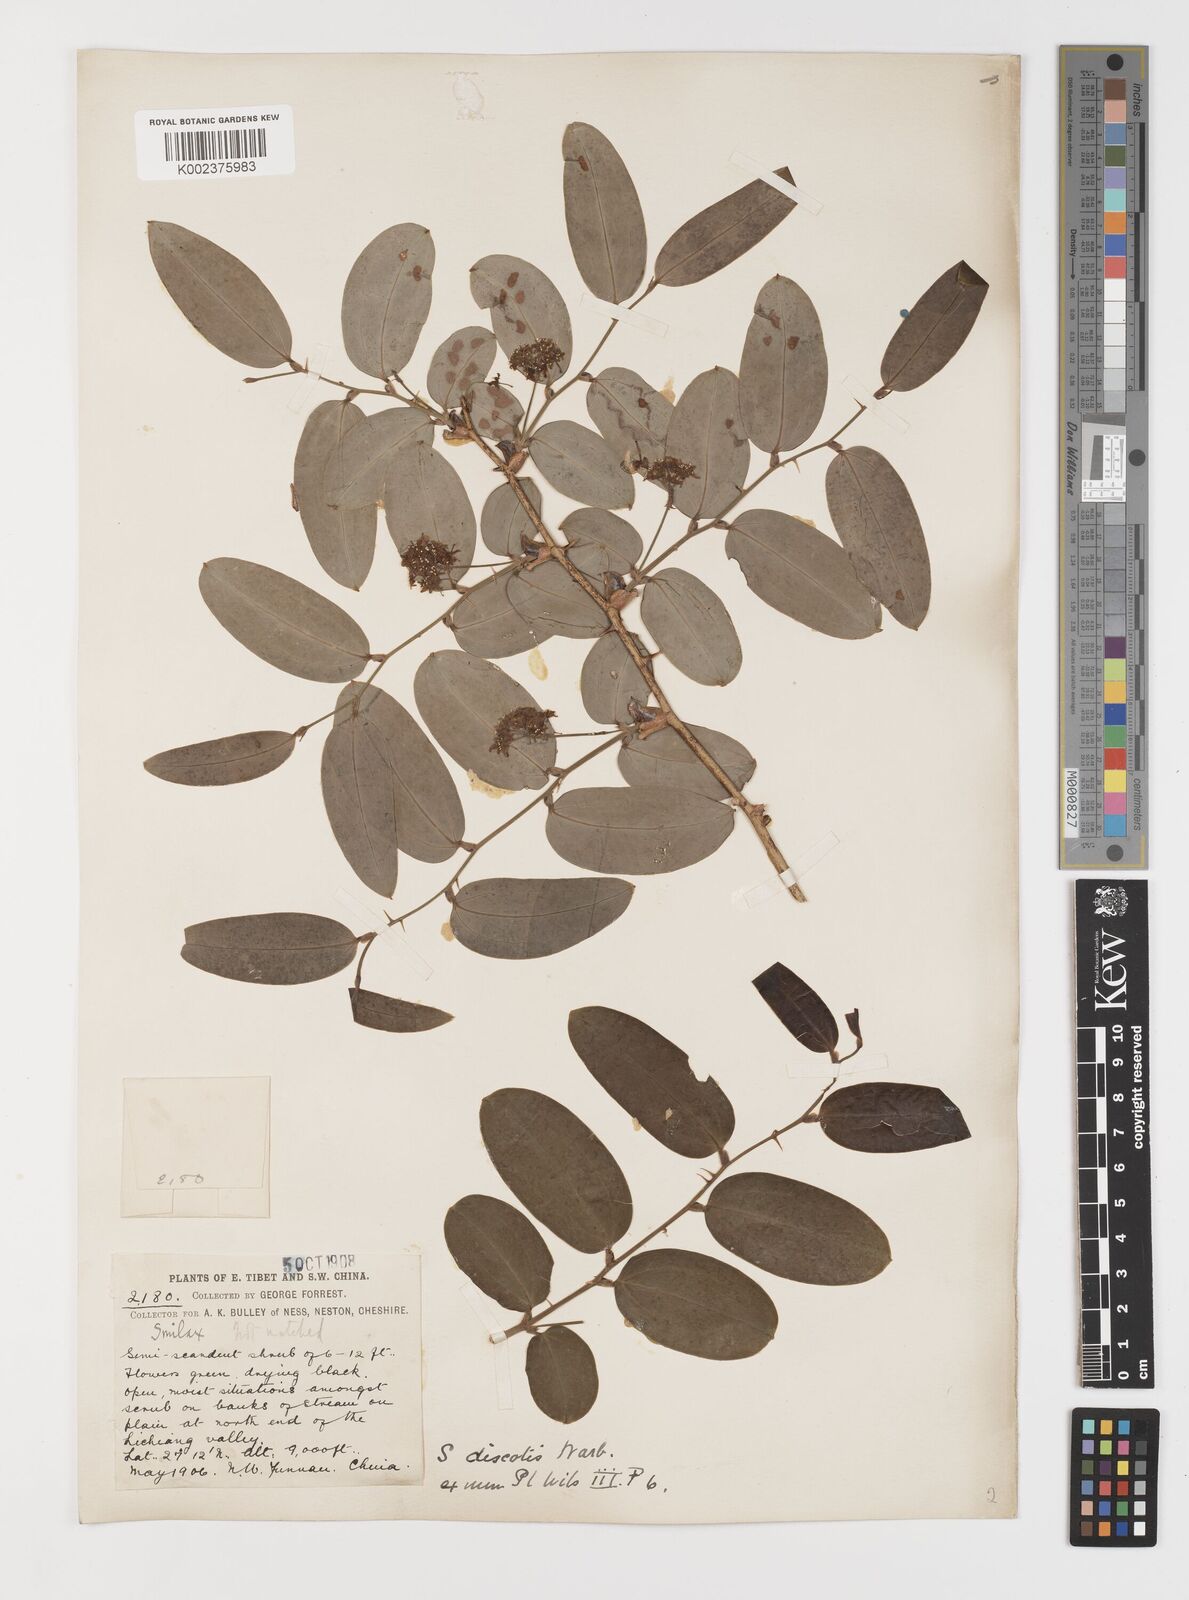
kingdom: Plantae
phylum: Tracheophyta
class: Liliopsida
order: Liliales
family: Smilacaceae
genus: Smilax
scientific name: Smilax discotis
